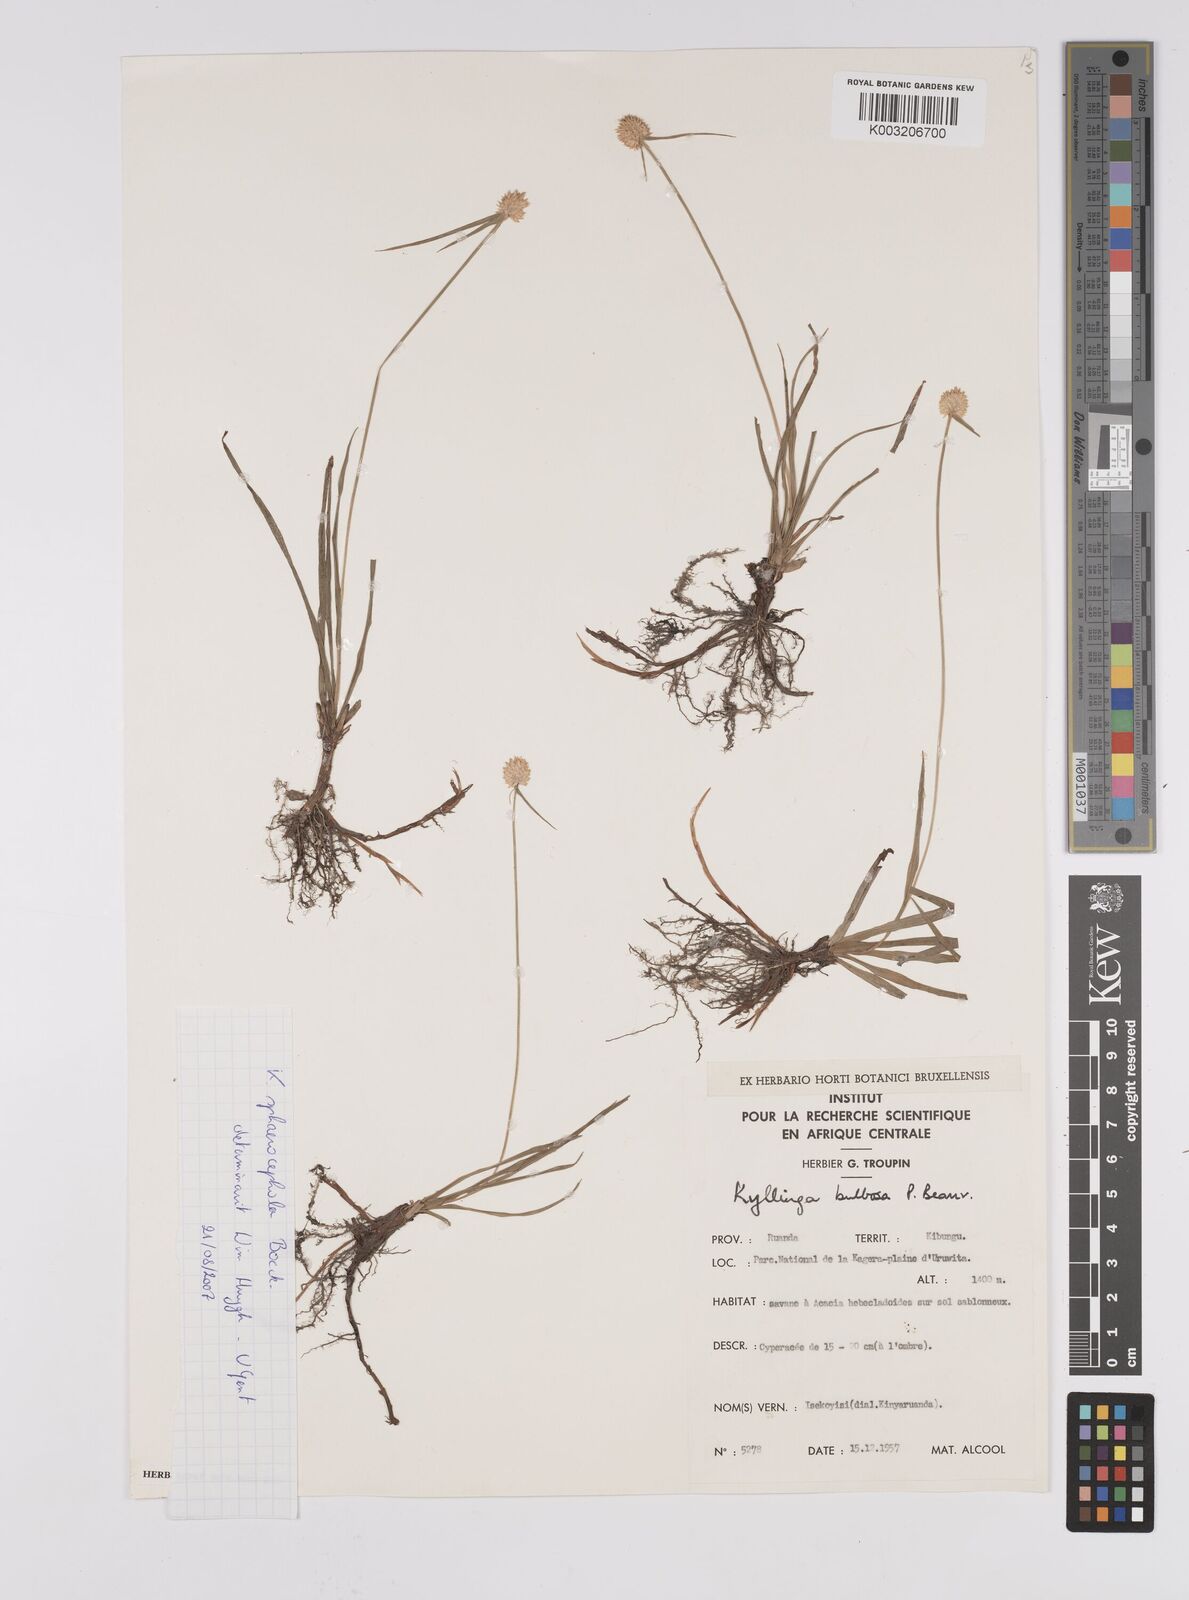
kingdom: Plantae
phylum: Tracheophyta
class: Liliopsida
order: Poales
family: Cyperaceae
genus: Cyperus
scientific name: Cyperus sphaerolepis
